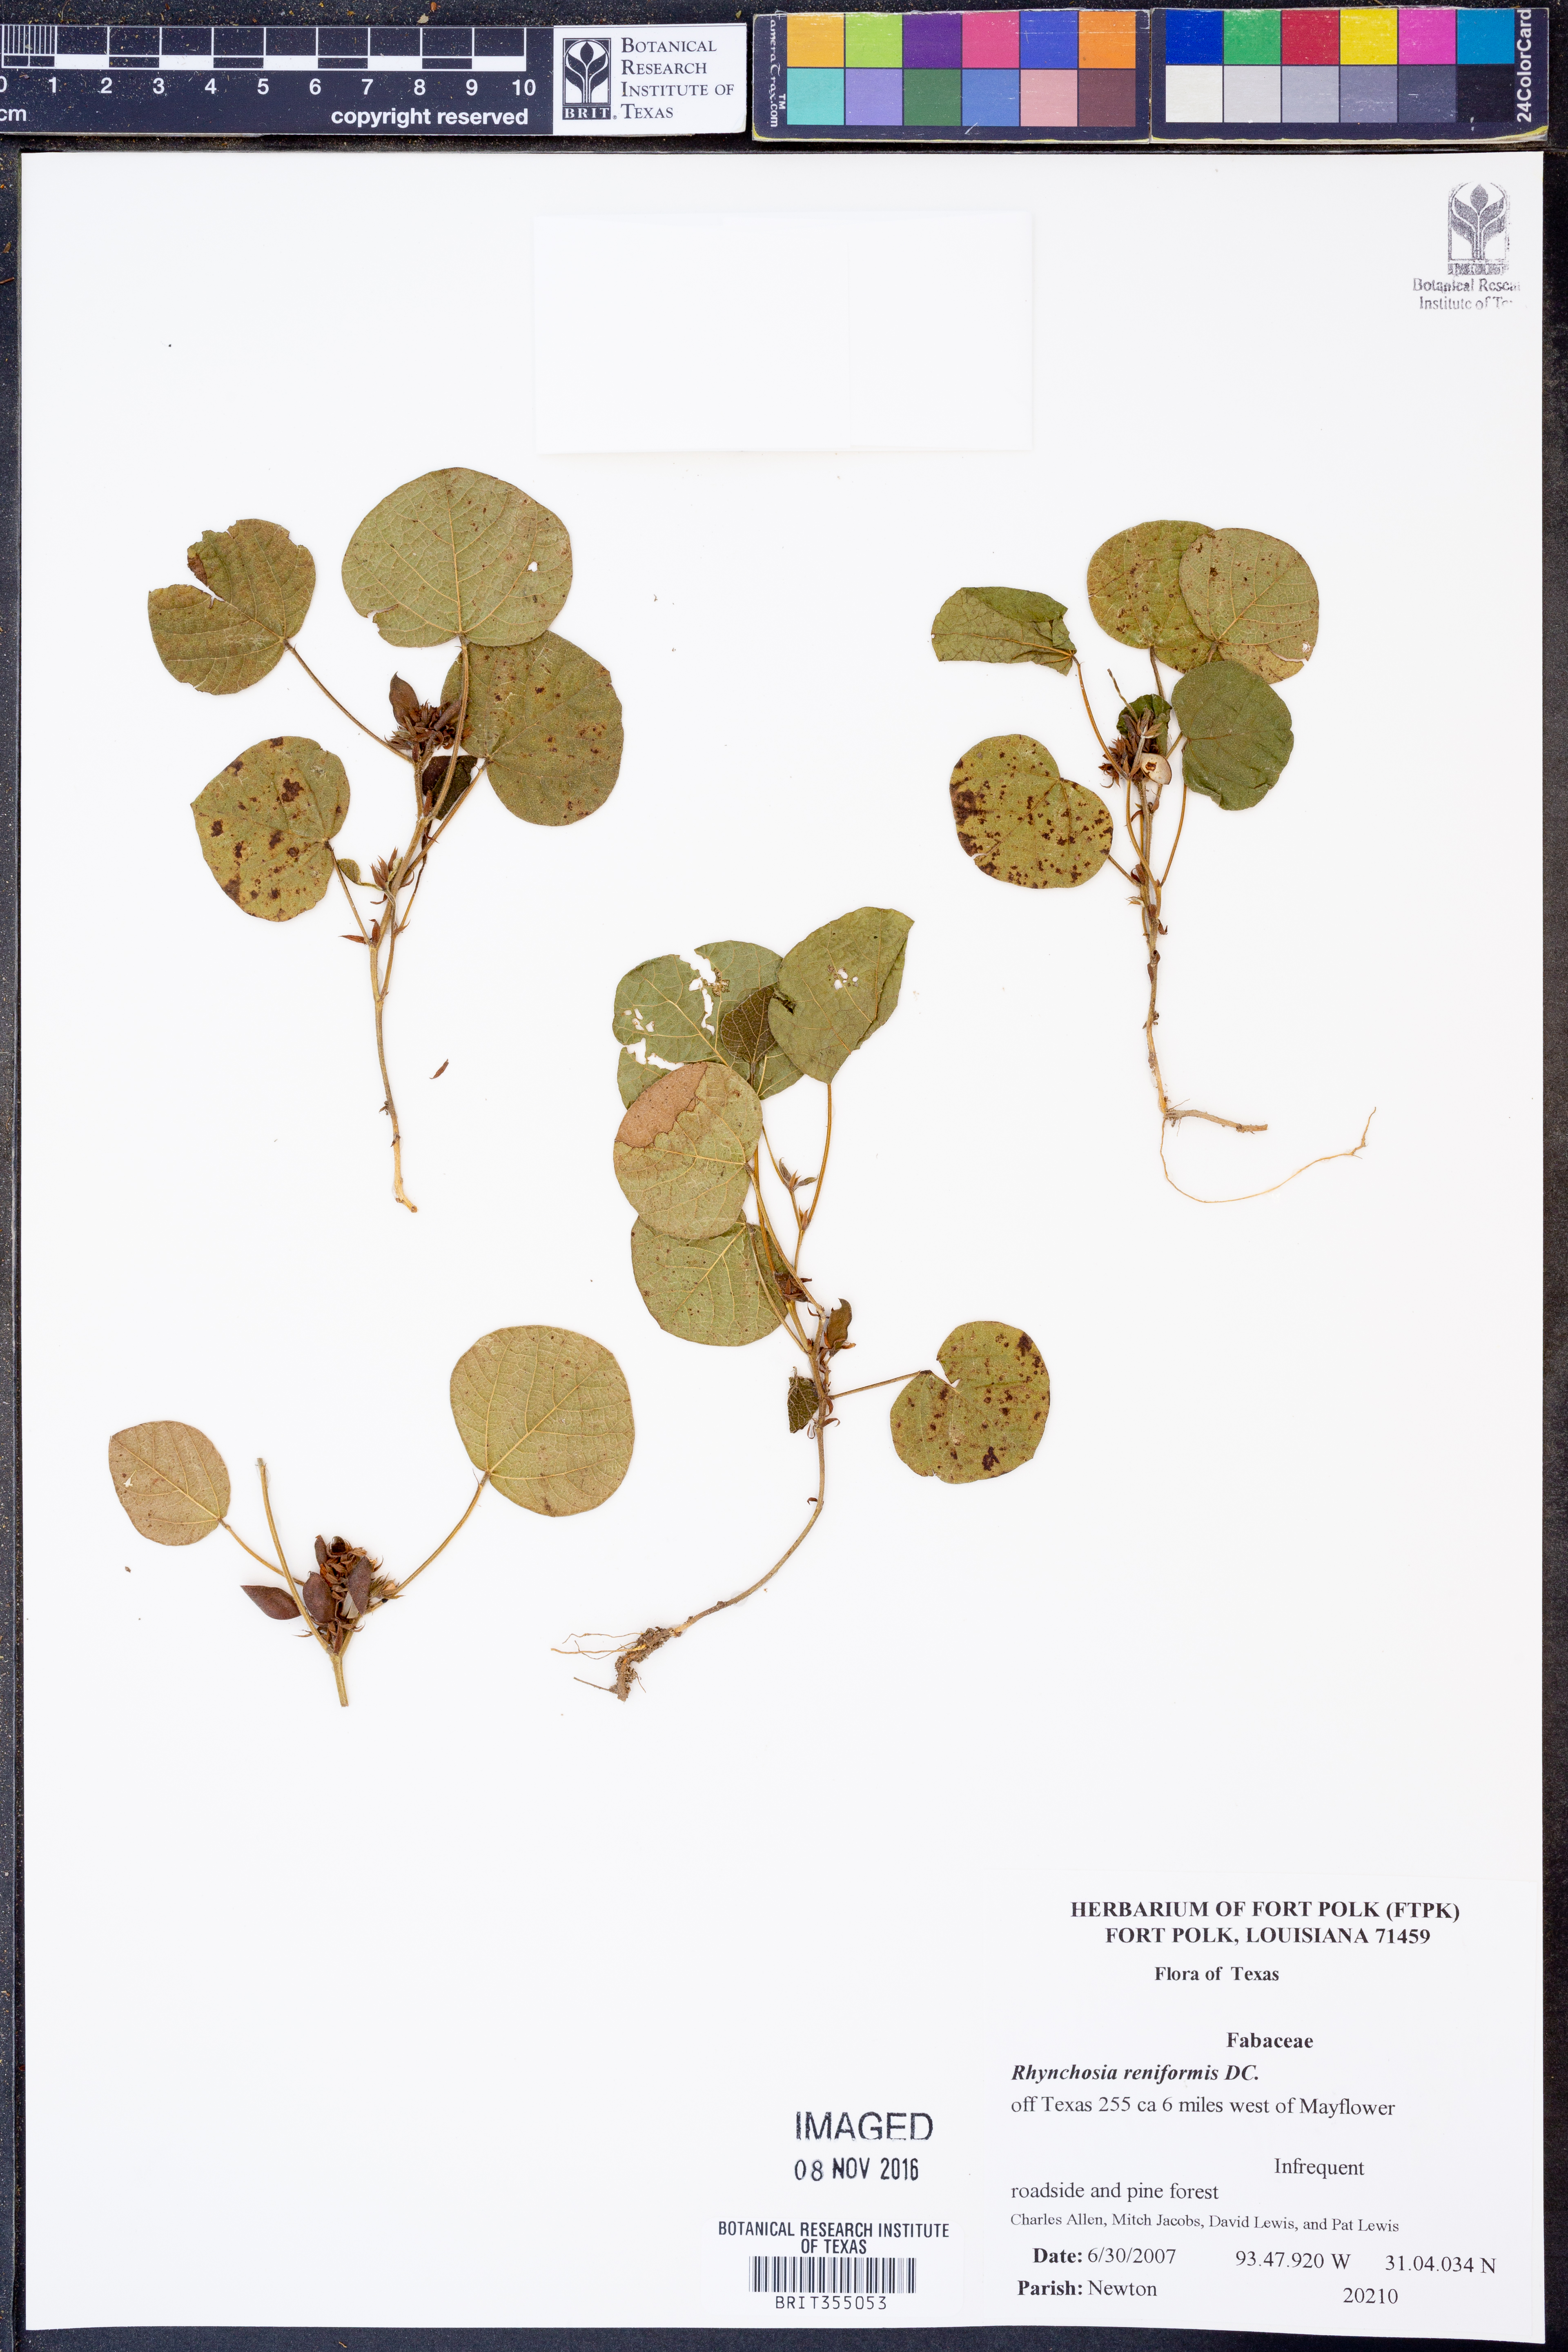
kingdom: Plantae
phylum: Tracheophyta
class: Magnoliopsida
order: Fabales
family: Fabaceae
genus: Rhynchosia
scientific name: Rhynchosia reniformis
